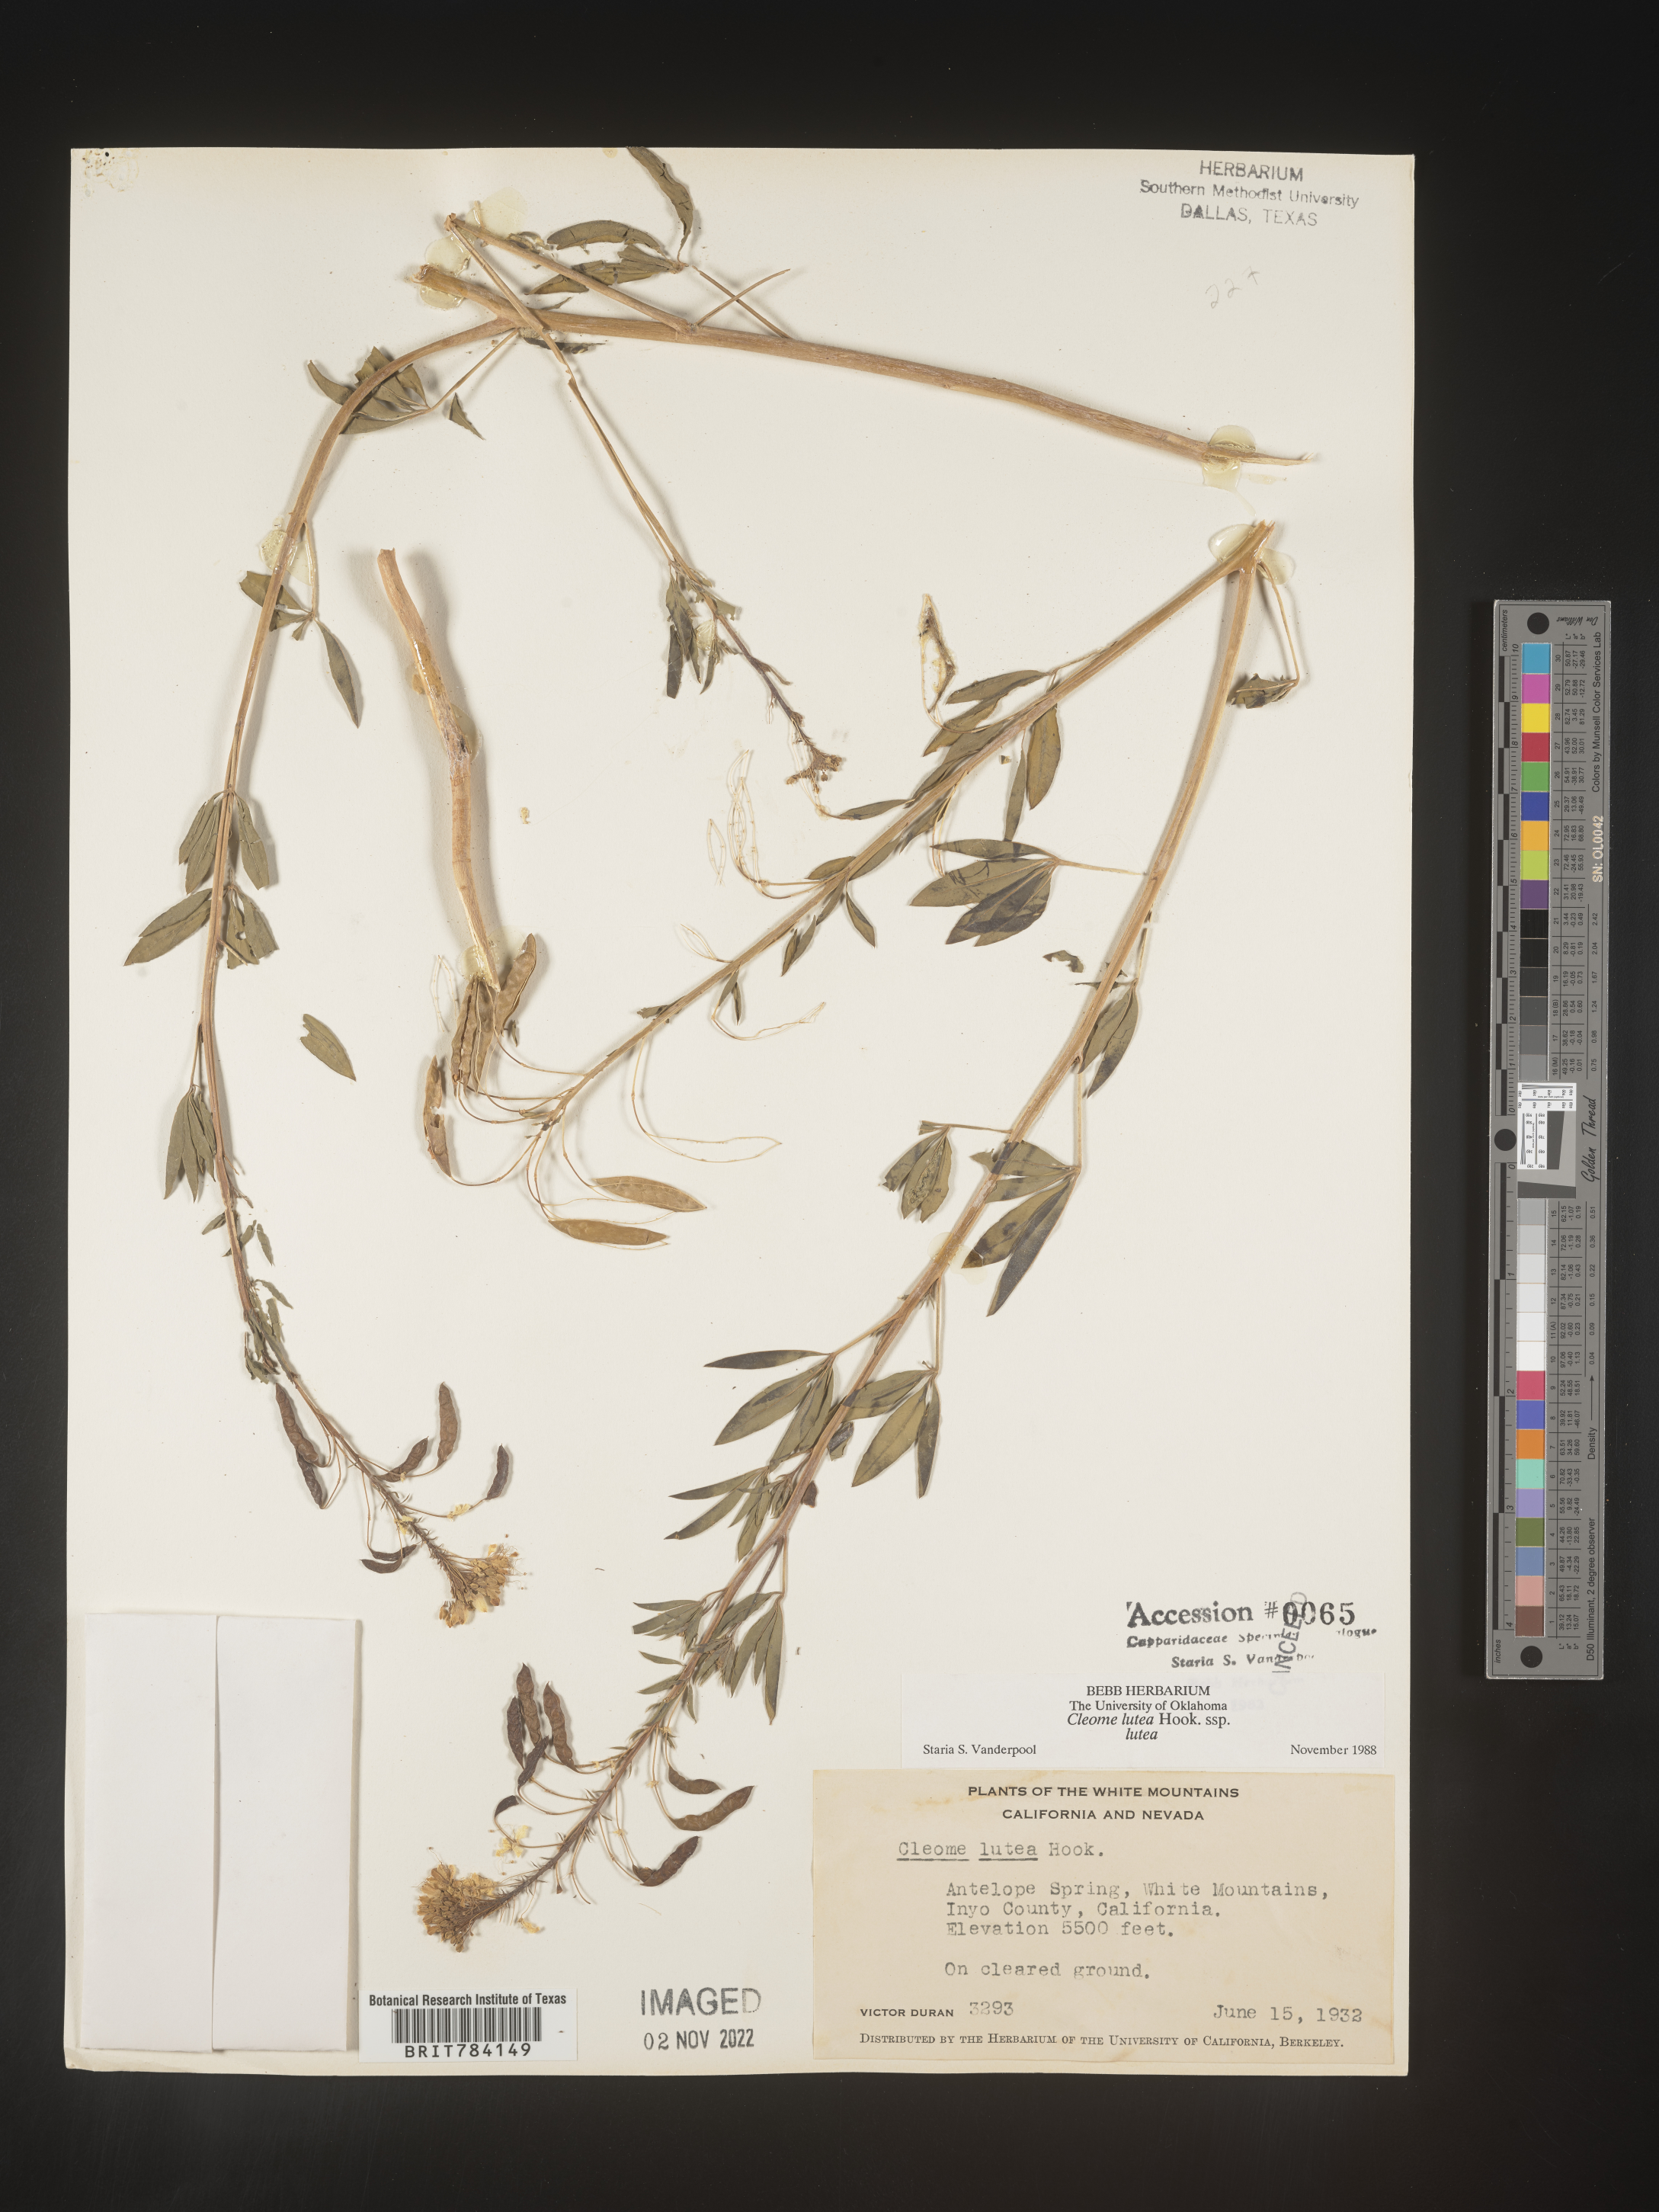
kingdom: Plantae
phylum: Tracheophyta
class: Magnoliopsida
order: Brassicales
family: Cleomaceae
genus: Cleomella
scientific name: Cleomella lutea
